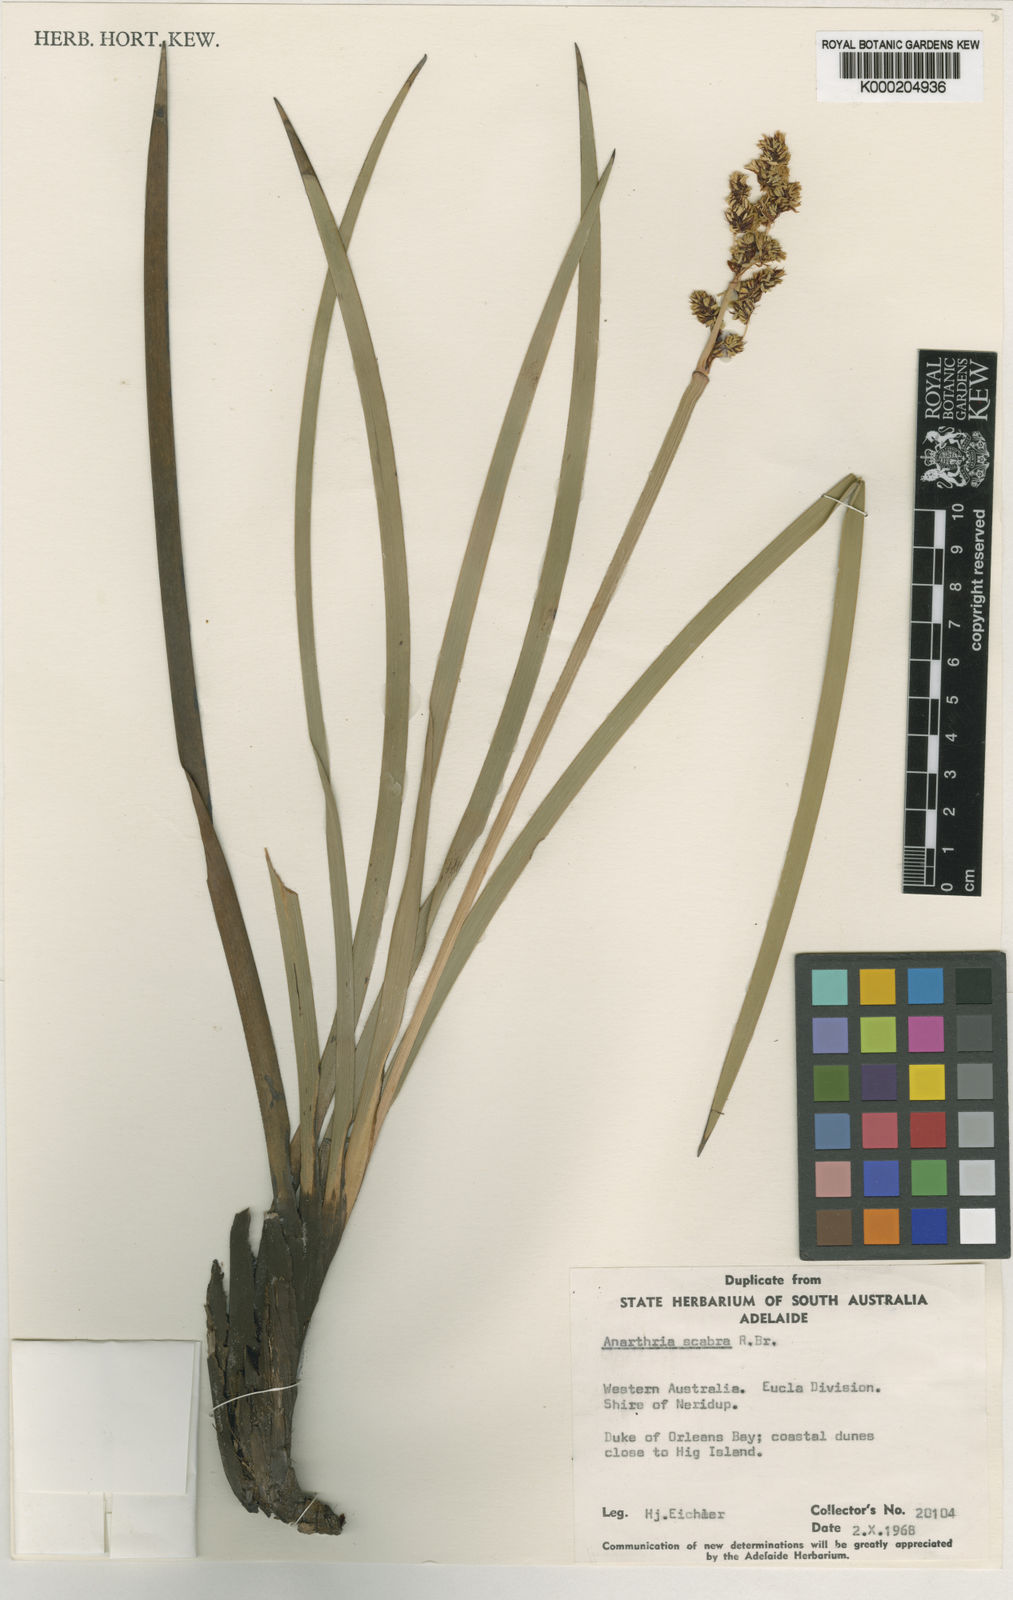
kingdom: Plantae
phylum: Tracheophyta
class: Liliopsida
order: Poales
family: Restionaceae
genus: Anarthria
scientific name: Anarthria scabra
